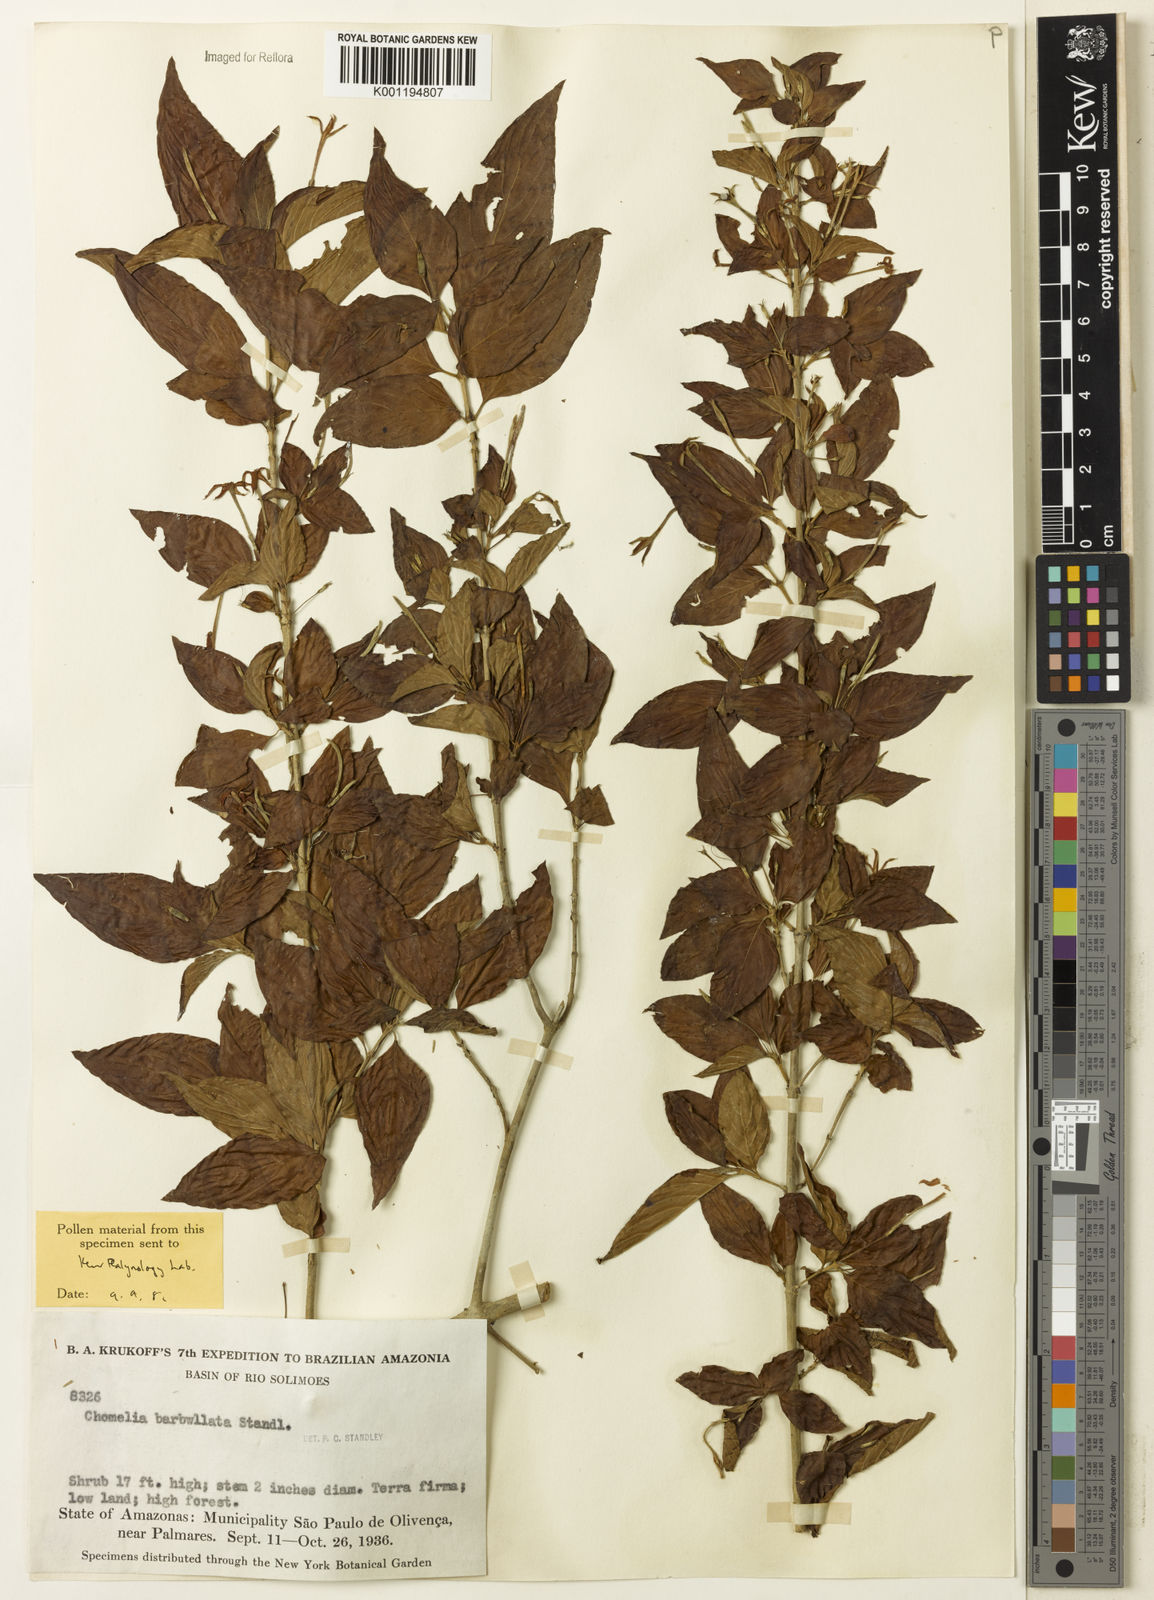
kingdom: Plantae
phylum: Tracheophyta
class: Magnoliopsida
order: Gentianales
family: Rubiaceae
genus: Chomelia
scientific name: Chomelia tenuiflora
